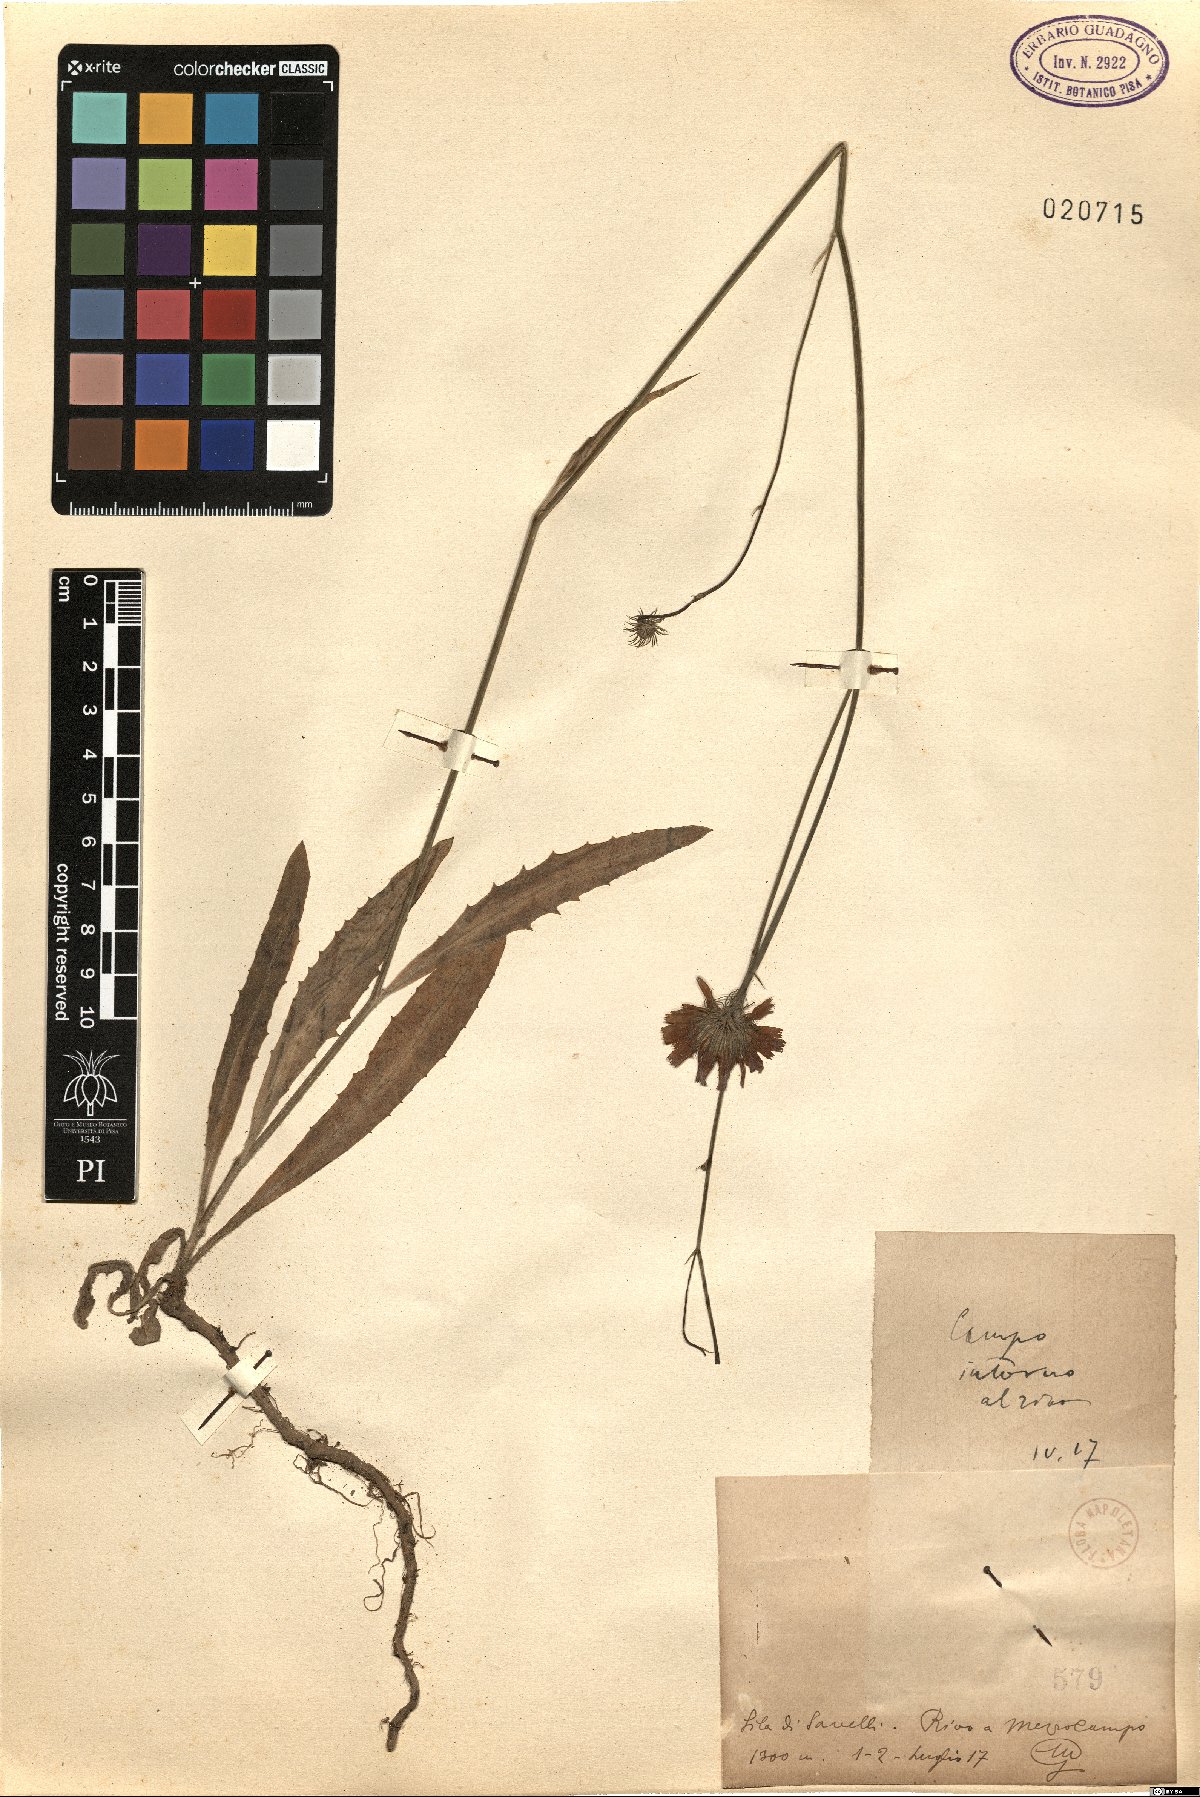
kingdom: Plantae
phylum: Tracheophyta
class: Magnoliopsida
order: Asterales
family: Asteraceae
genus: Tolpis
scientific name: Tolpis
